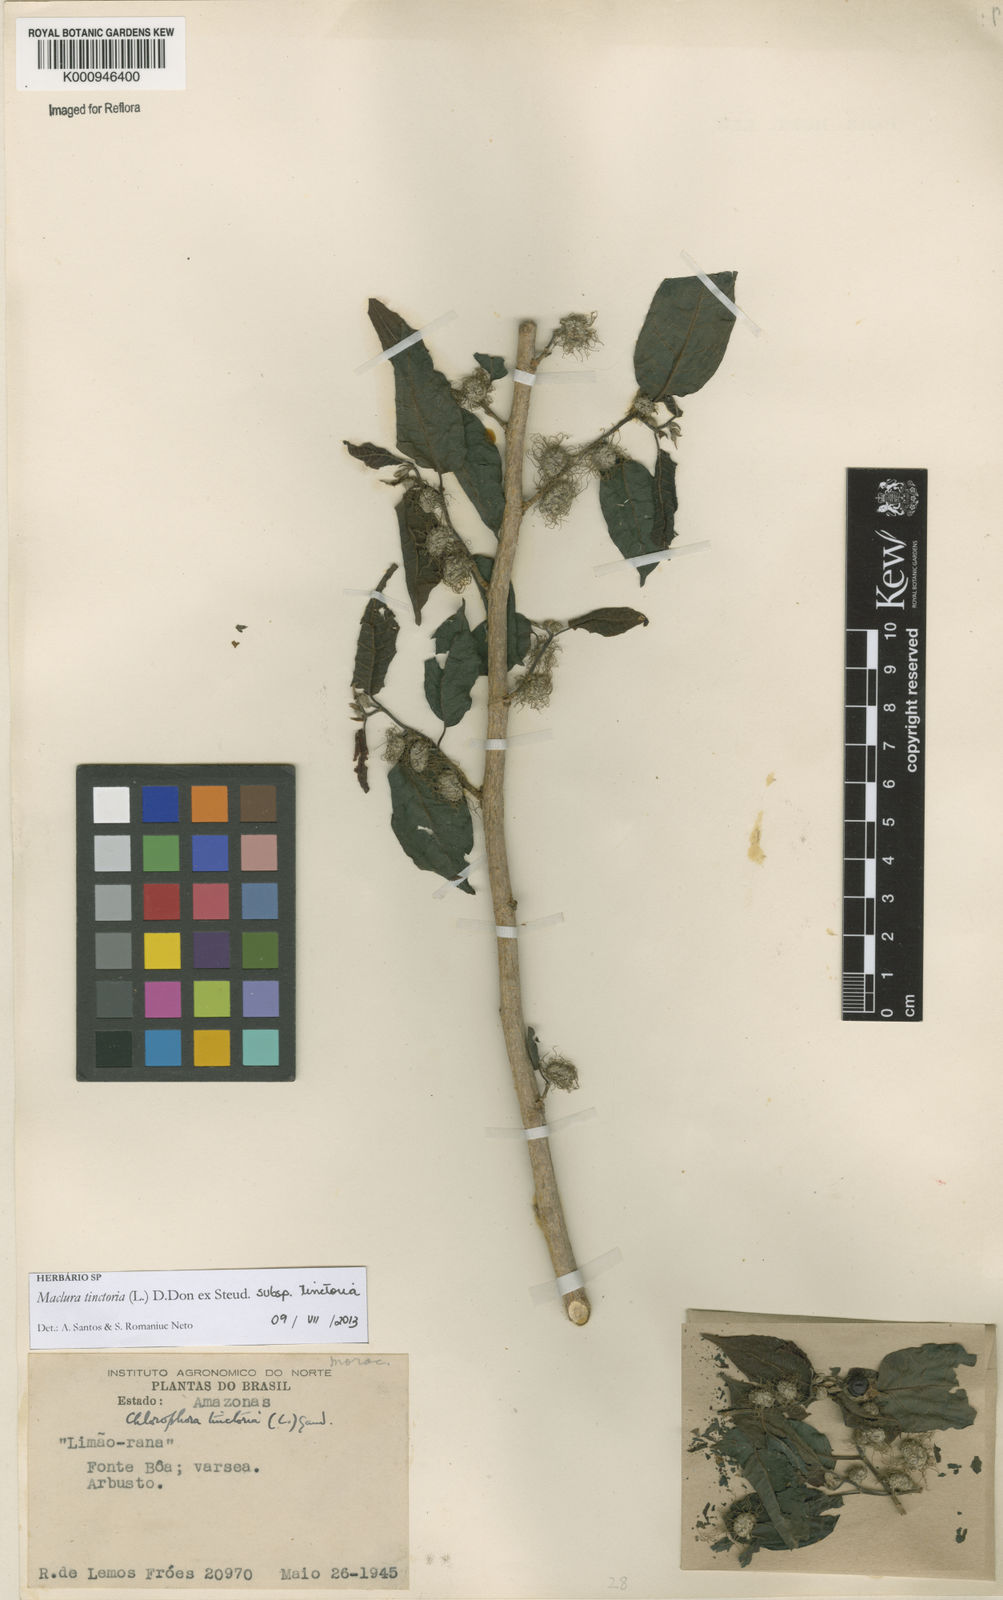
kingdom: Plantae
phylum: Tracheophyta
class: Magnoliopsida
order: Rosales
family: Moraceae
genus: Maclura
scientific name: Maclura tinctoria
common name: Old fustic
